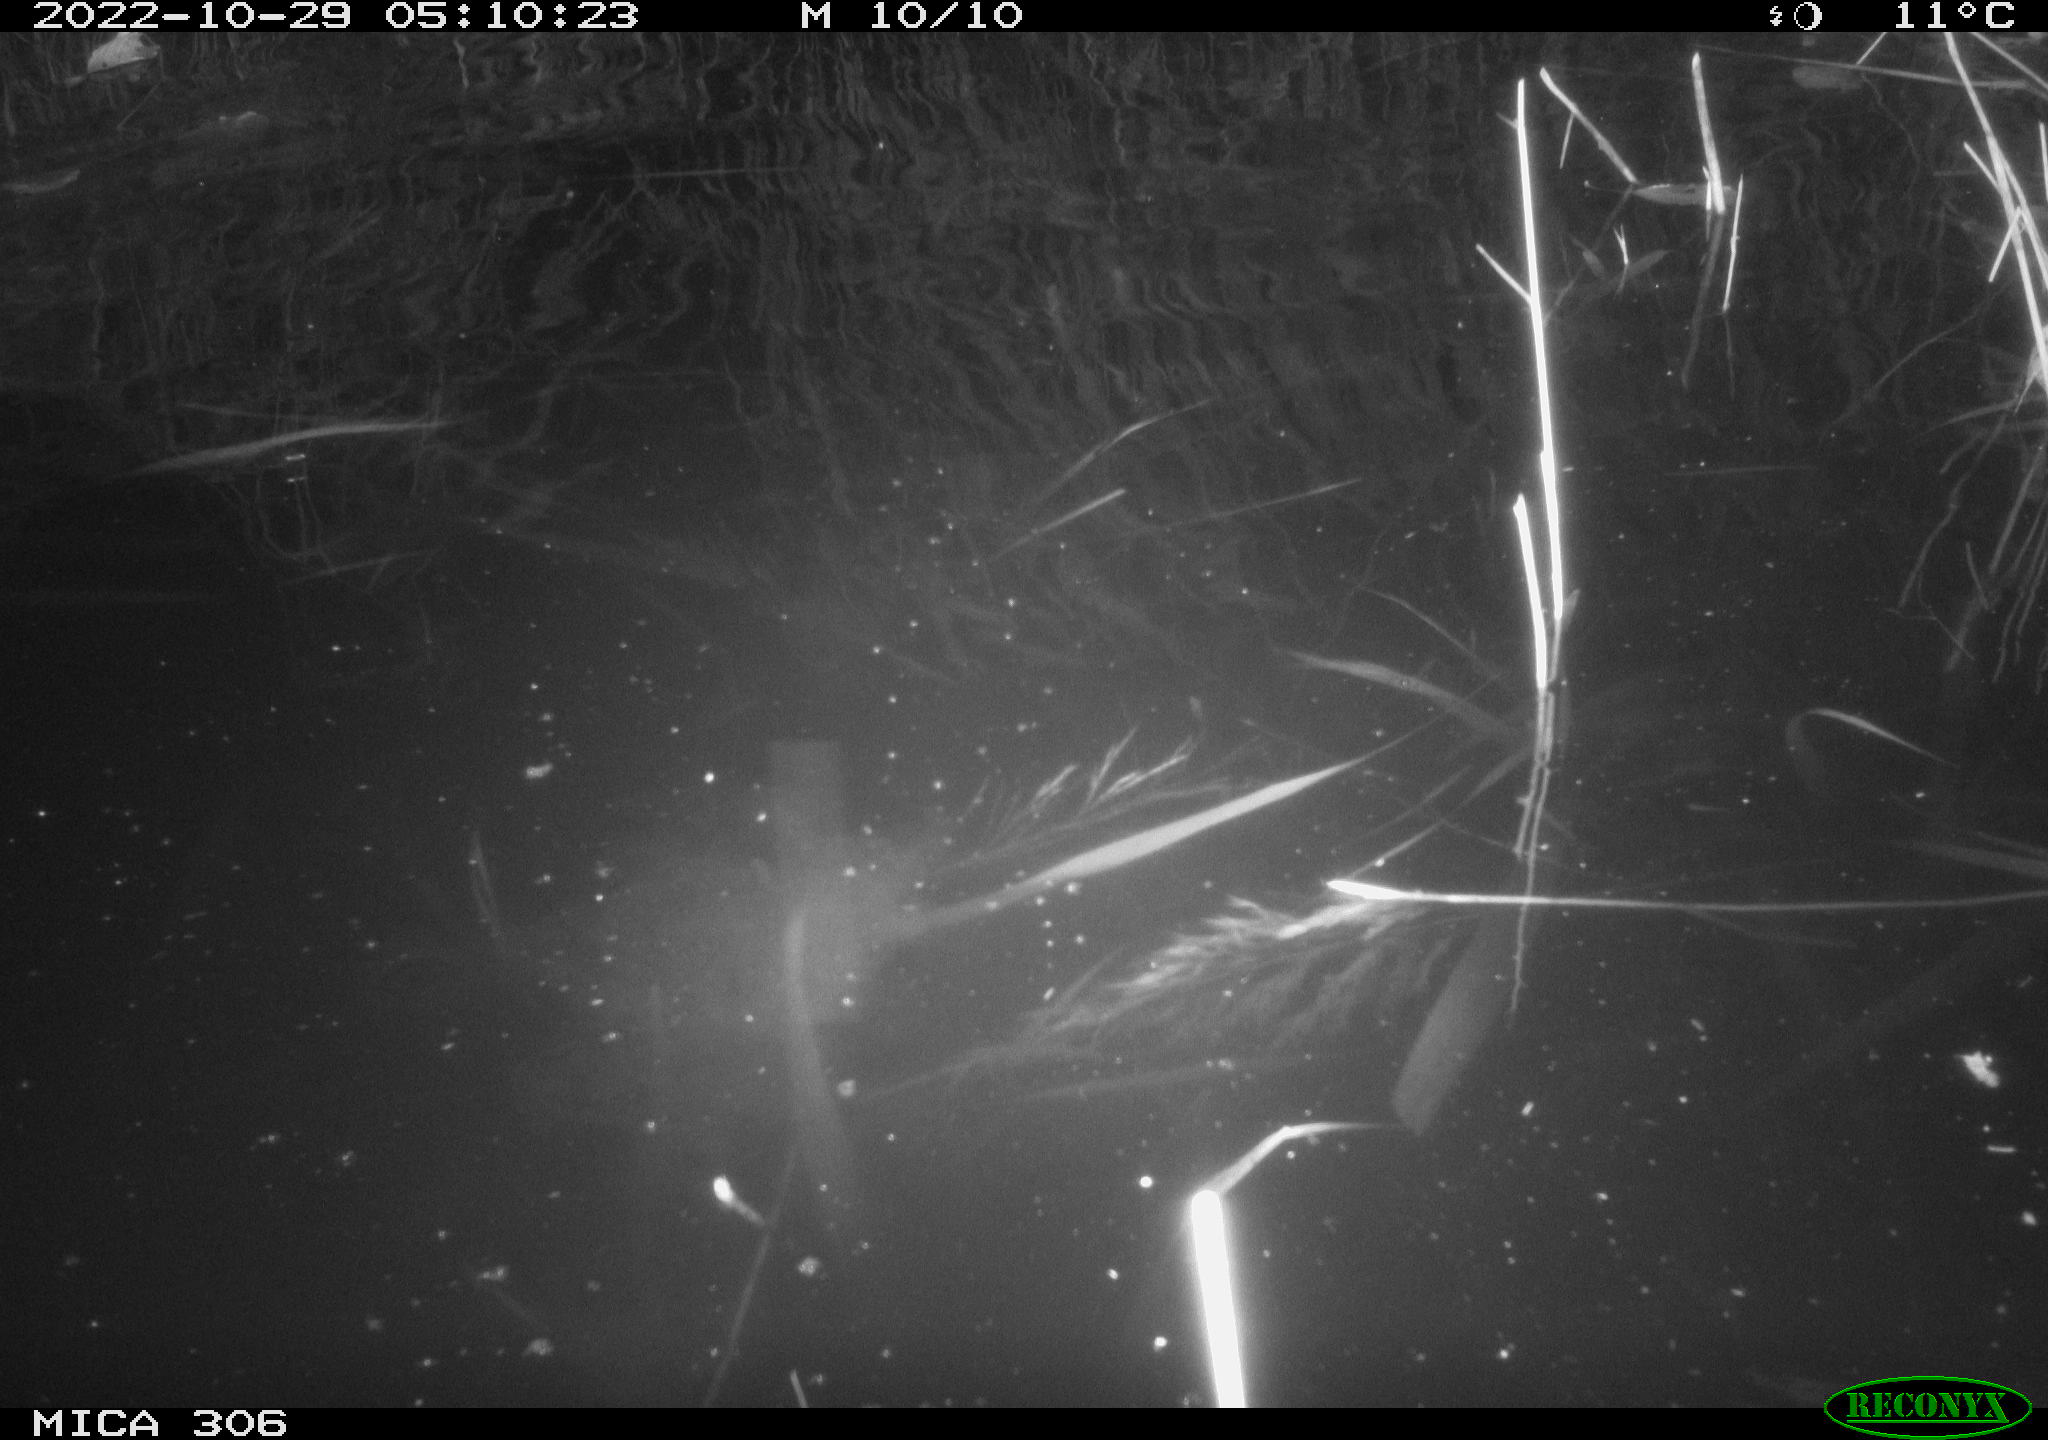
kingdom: Animalia
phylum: Chordata
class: Mammalia
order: Rodentia
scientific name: Rodentia
